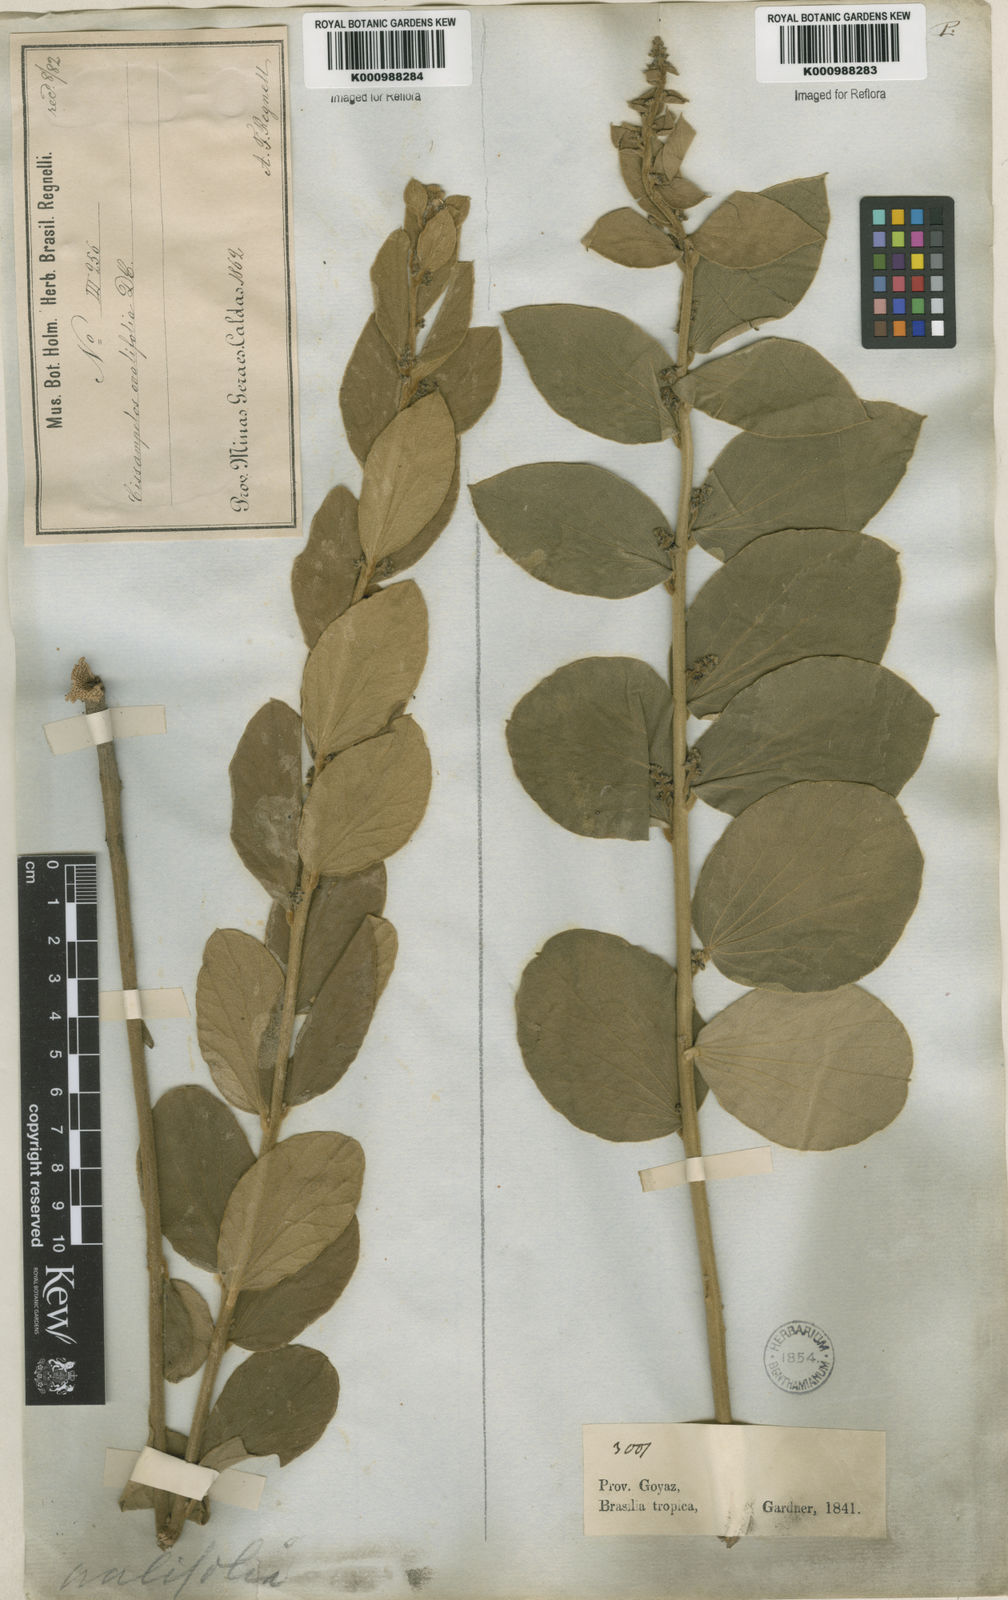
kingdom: Plantae
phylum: Tracheophyta
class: Magnoliopsida
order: Ranunculales
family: Menispermaceae
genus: Cissampelos
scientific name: Cissampelos ovalifolia
